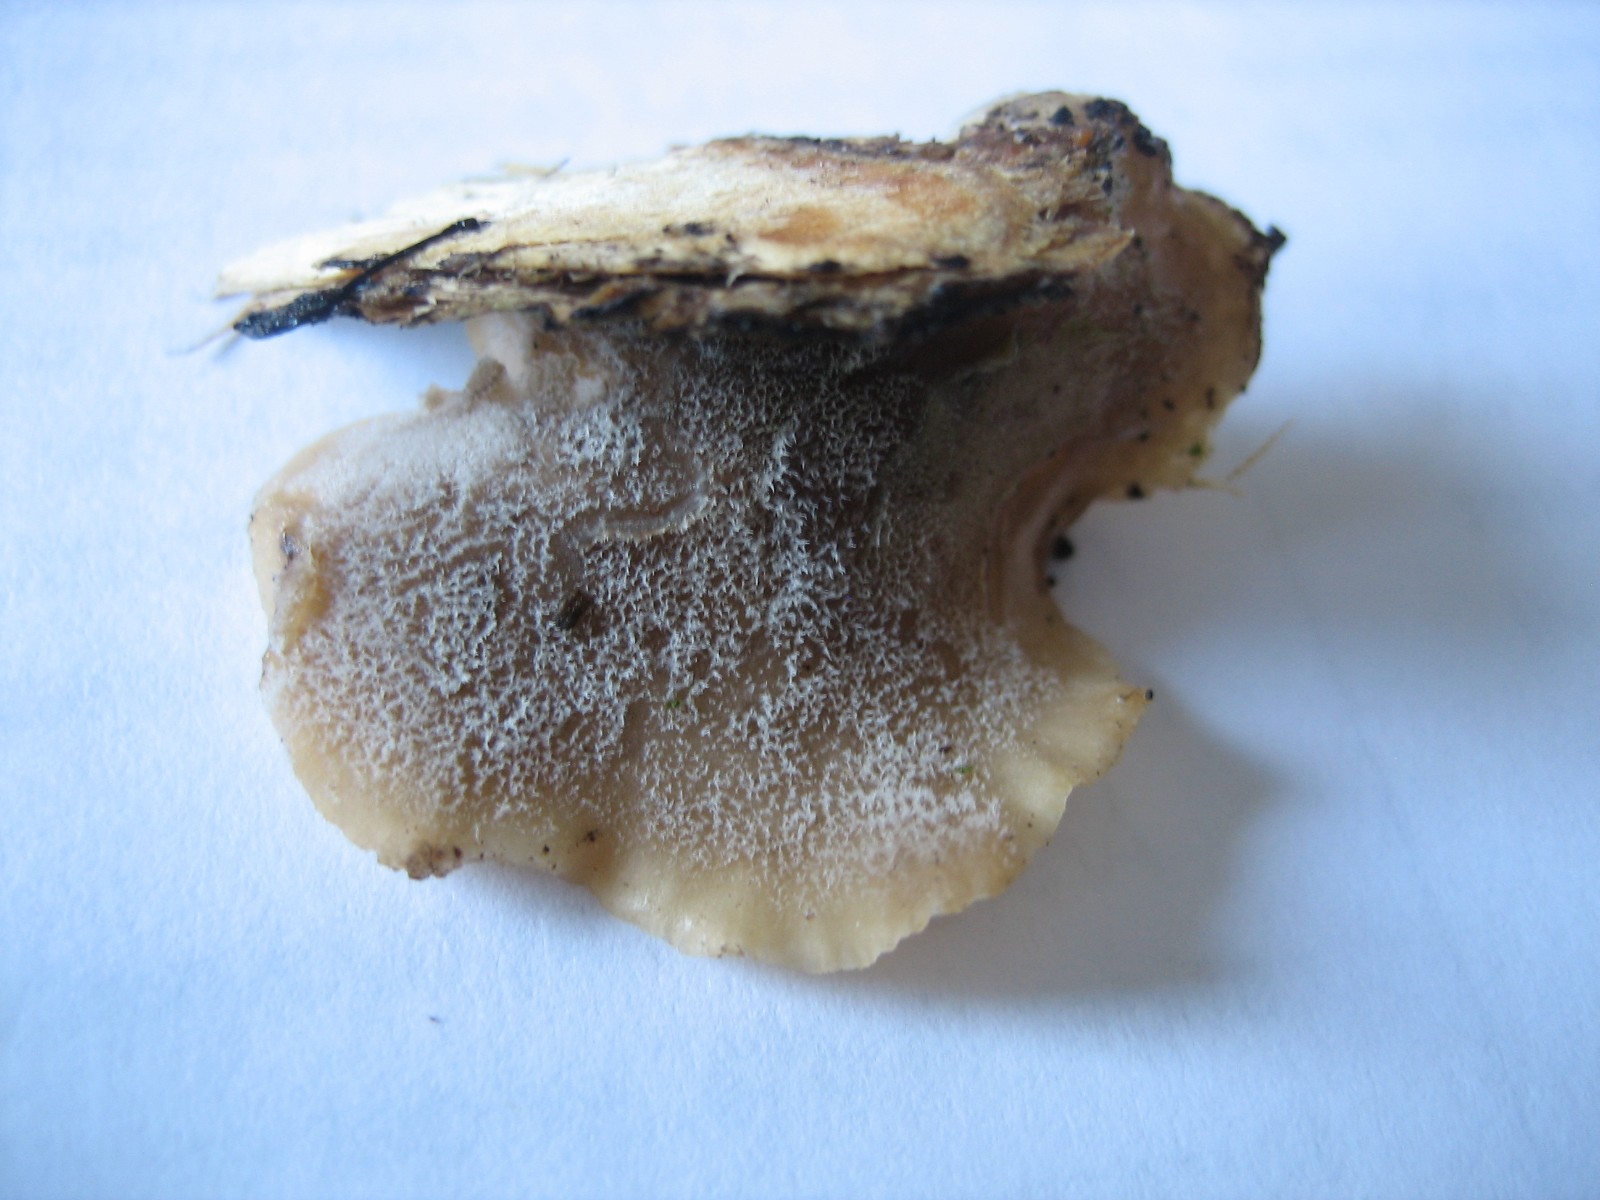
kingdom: Fungi
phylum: Basidiomycota
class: Agaricomycetes
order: Agaricales
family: Pleurotaceae
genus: Hohenbuehelia
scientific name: Hohenbuehelia mastrucata
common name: skællet filthat
